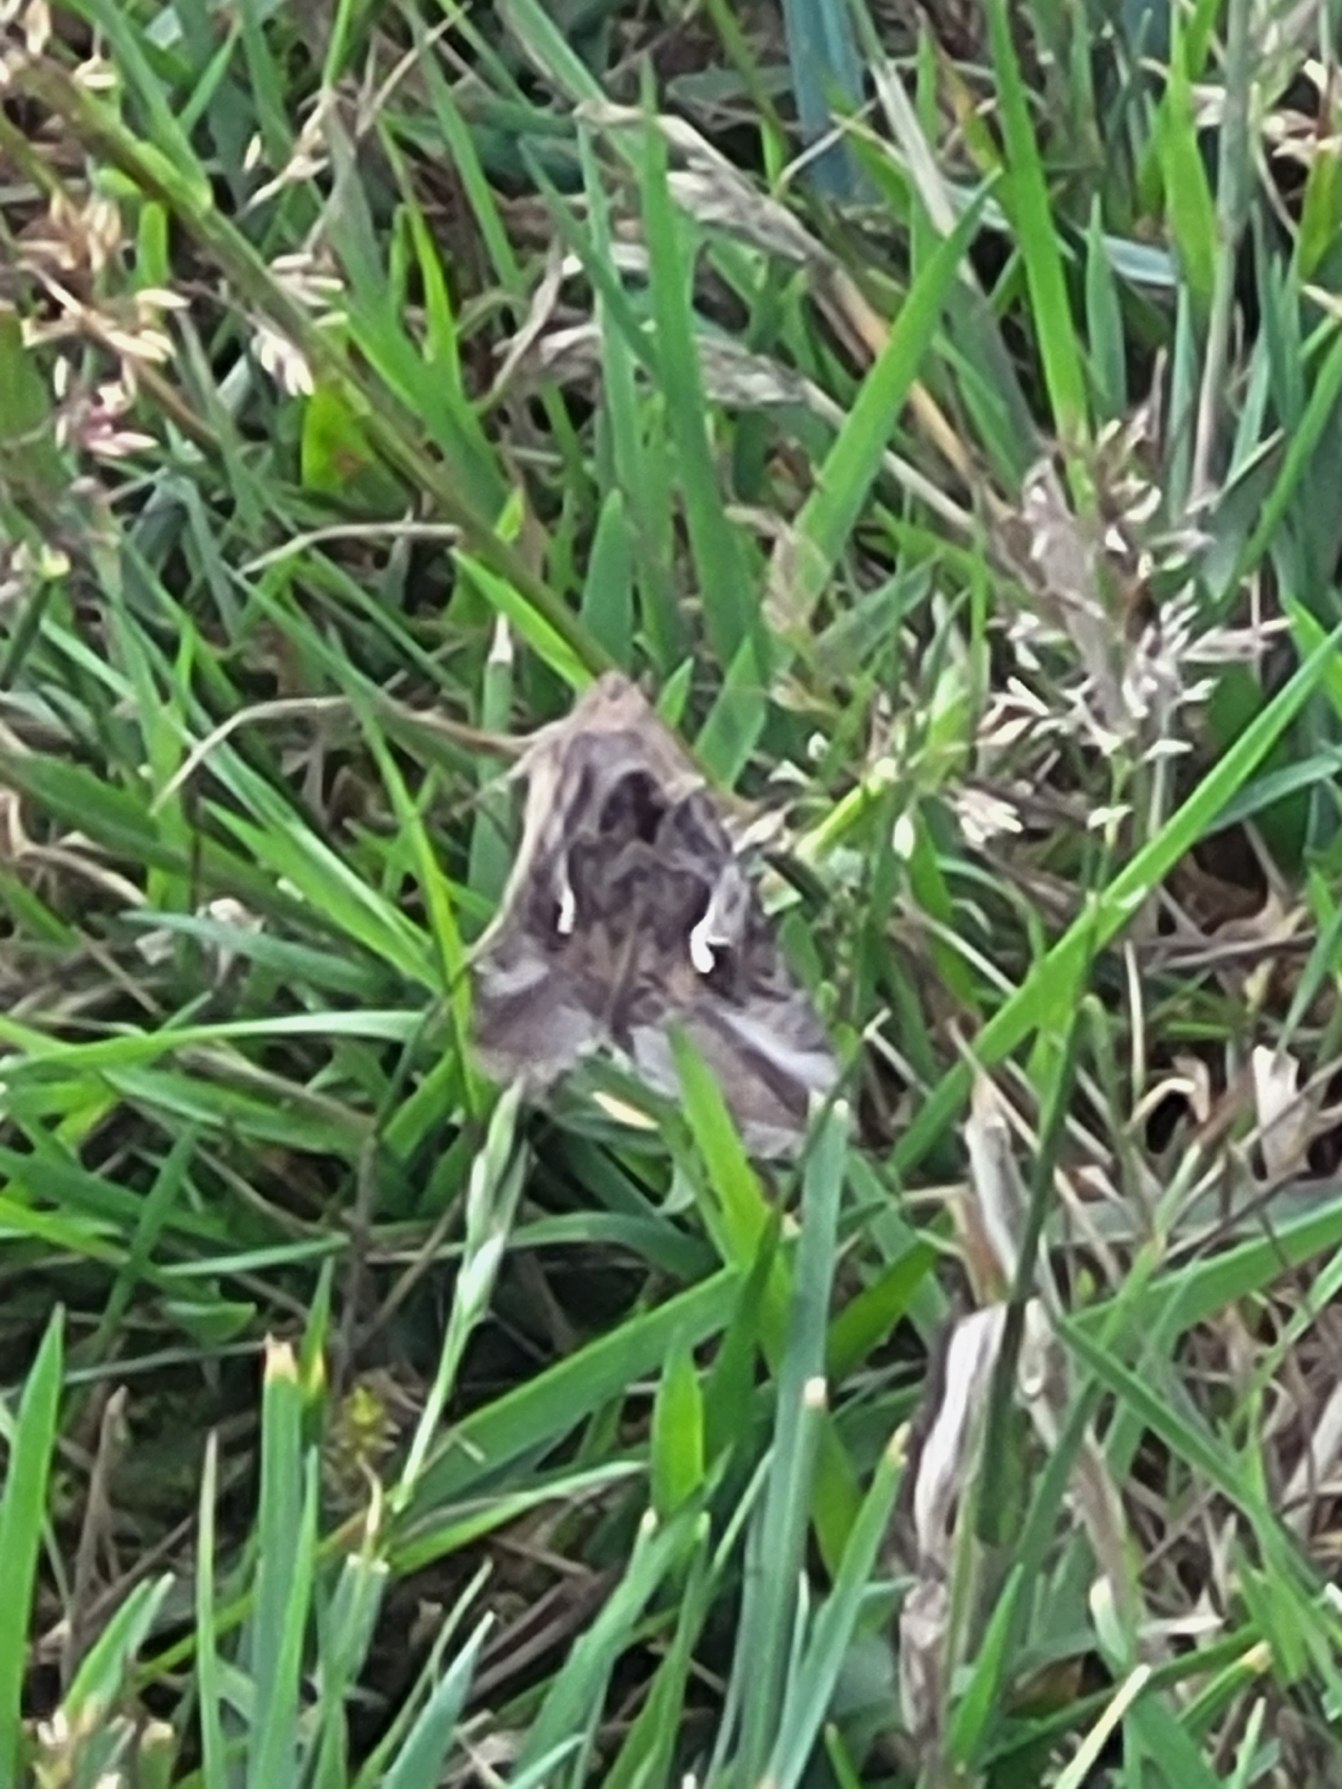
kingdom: Animalia
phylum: Arthropoda
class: Insecta
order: Lepidoptera
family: Noctuidae
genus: Autographa
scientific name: Autographa gamma
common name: Gammaugle
